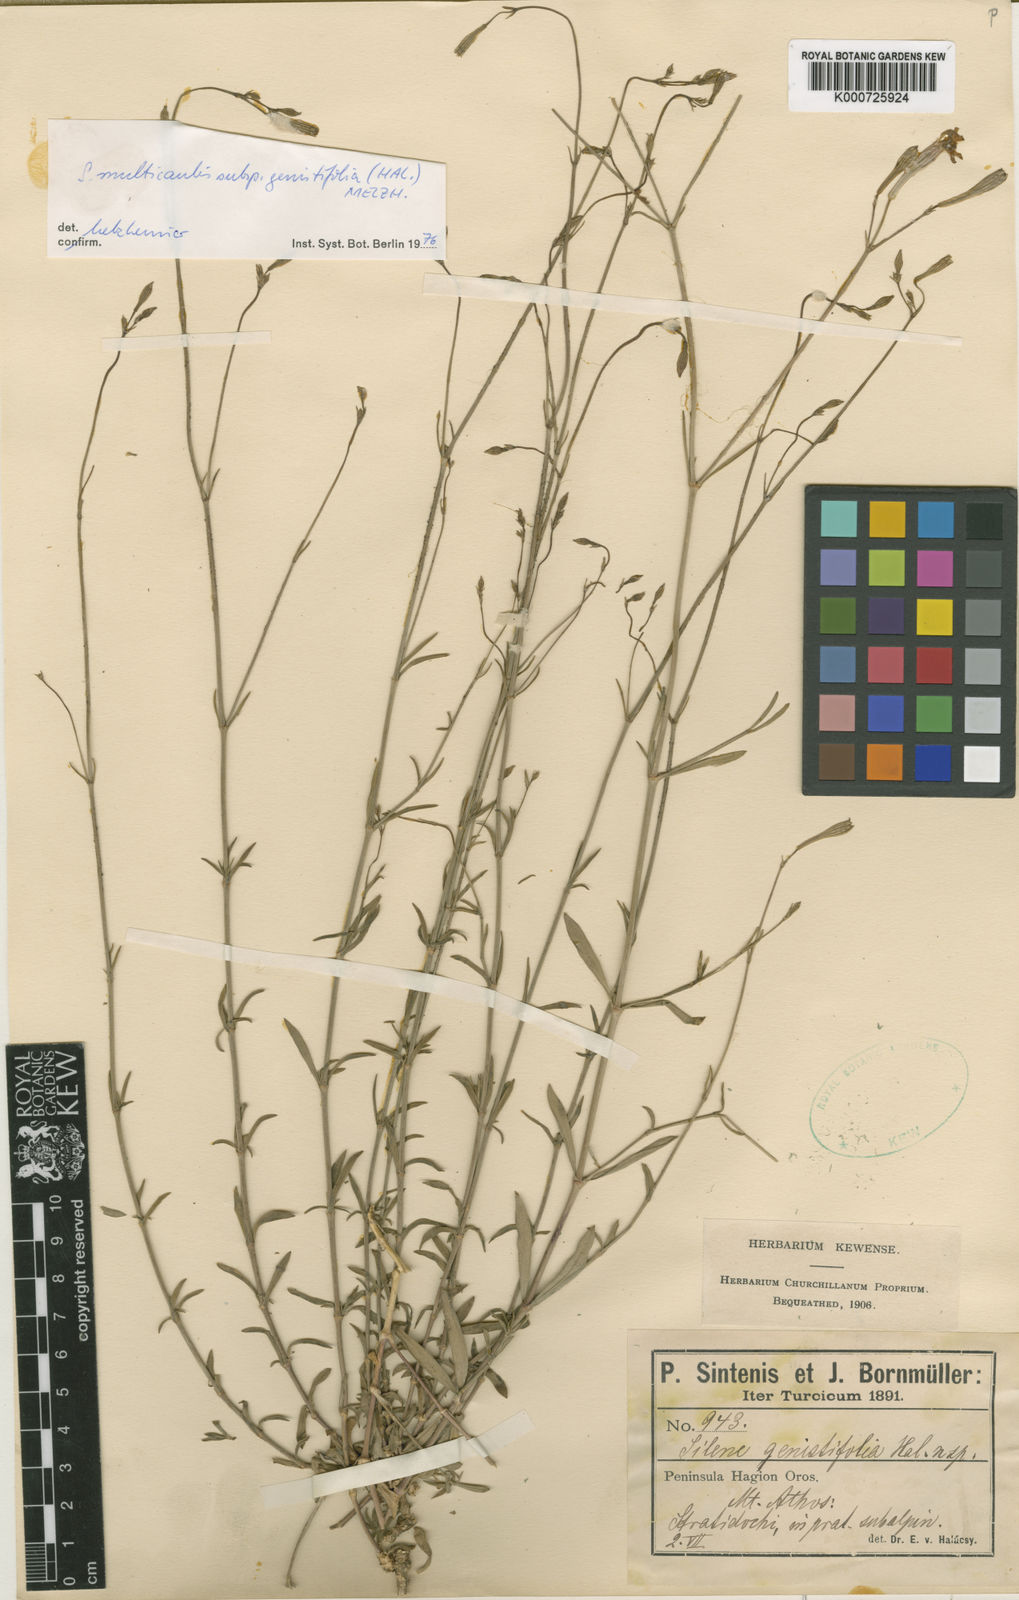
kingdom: Plantae
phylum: Tracheophyta
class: Magnoliopsida
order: Caryophyllales
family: Caryophyllaceae
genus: Silene
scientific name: Silene
